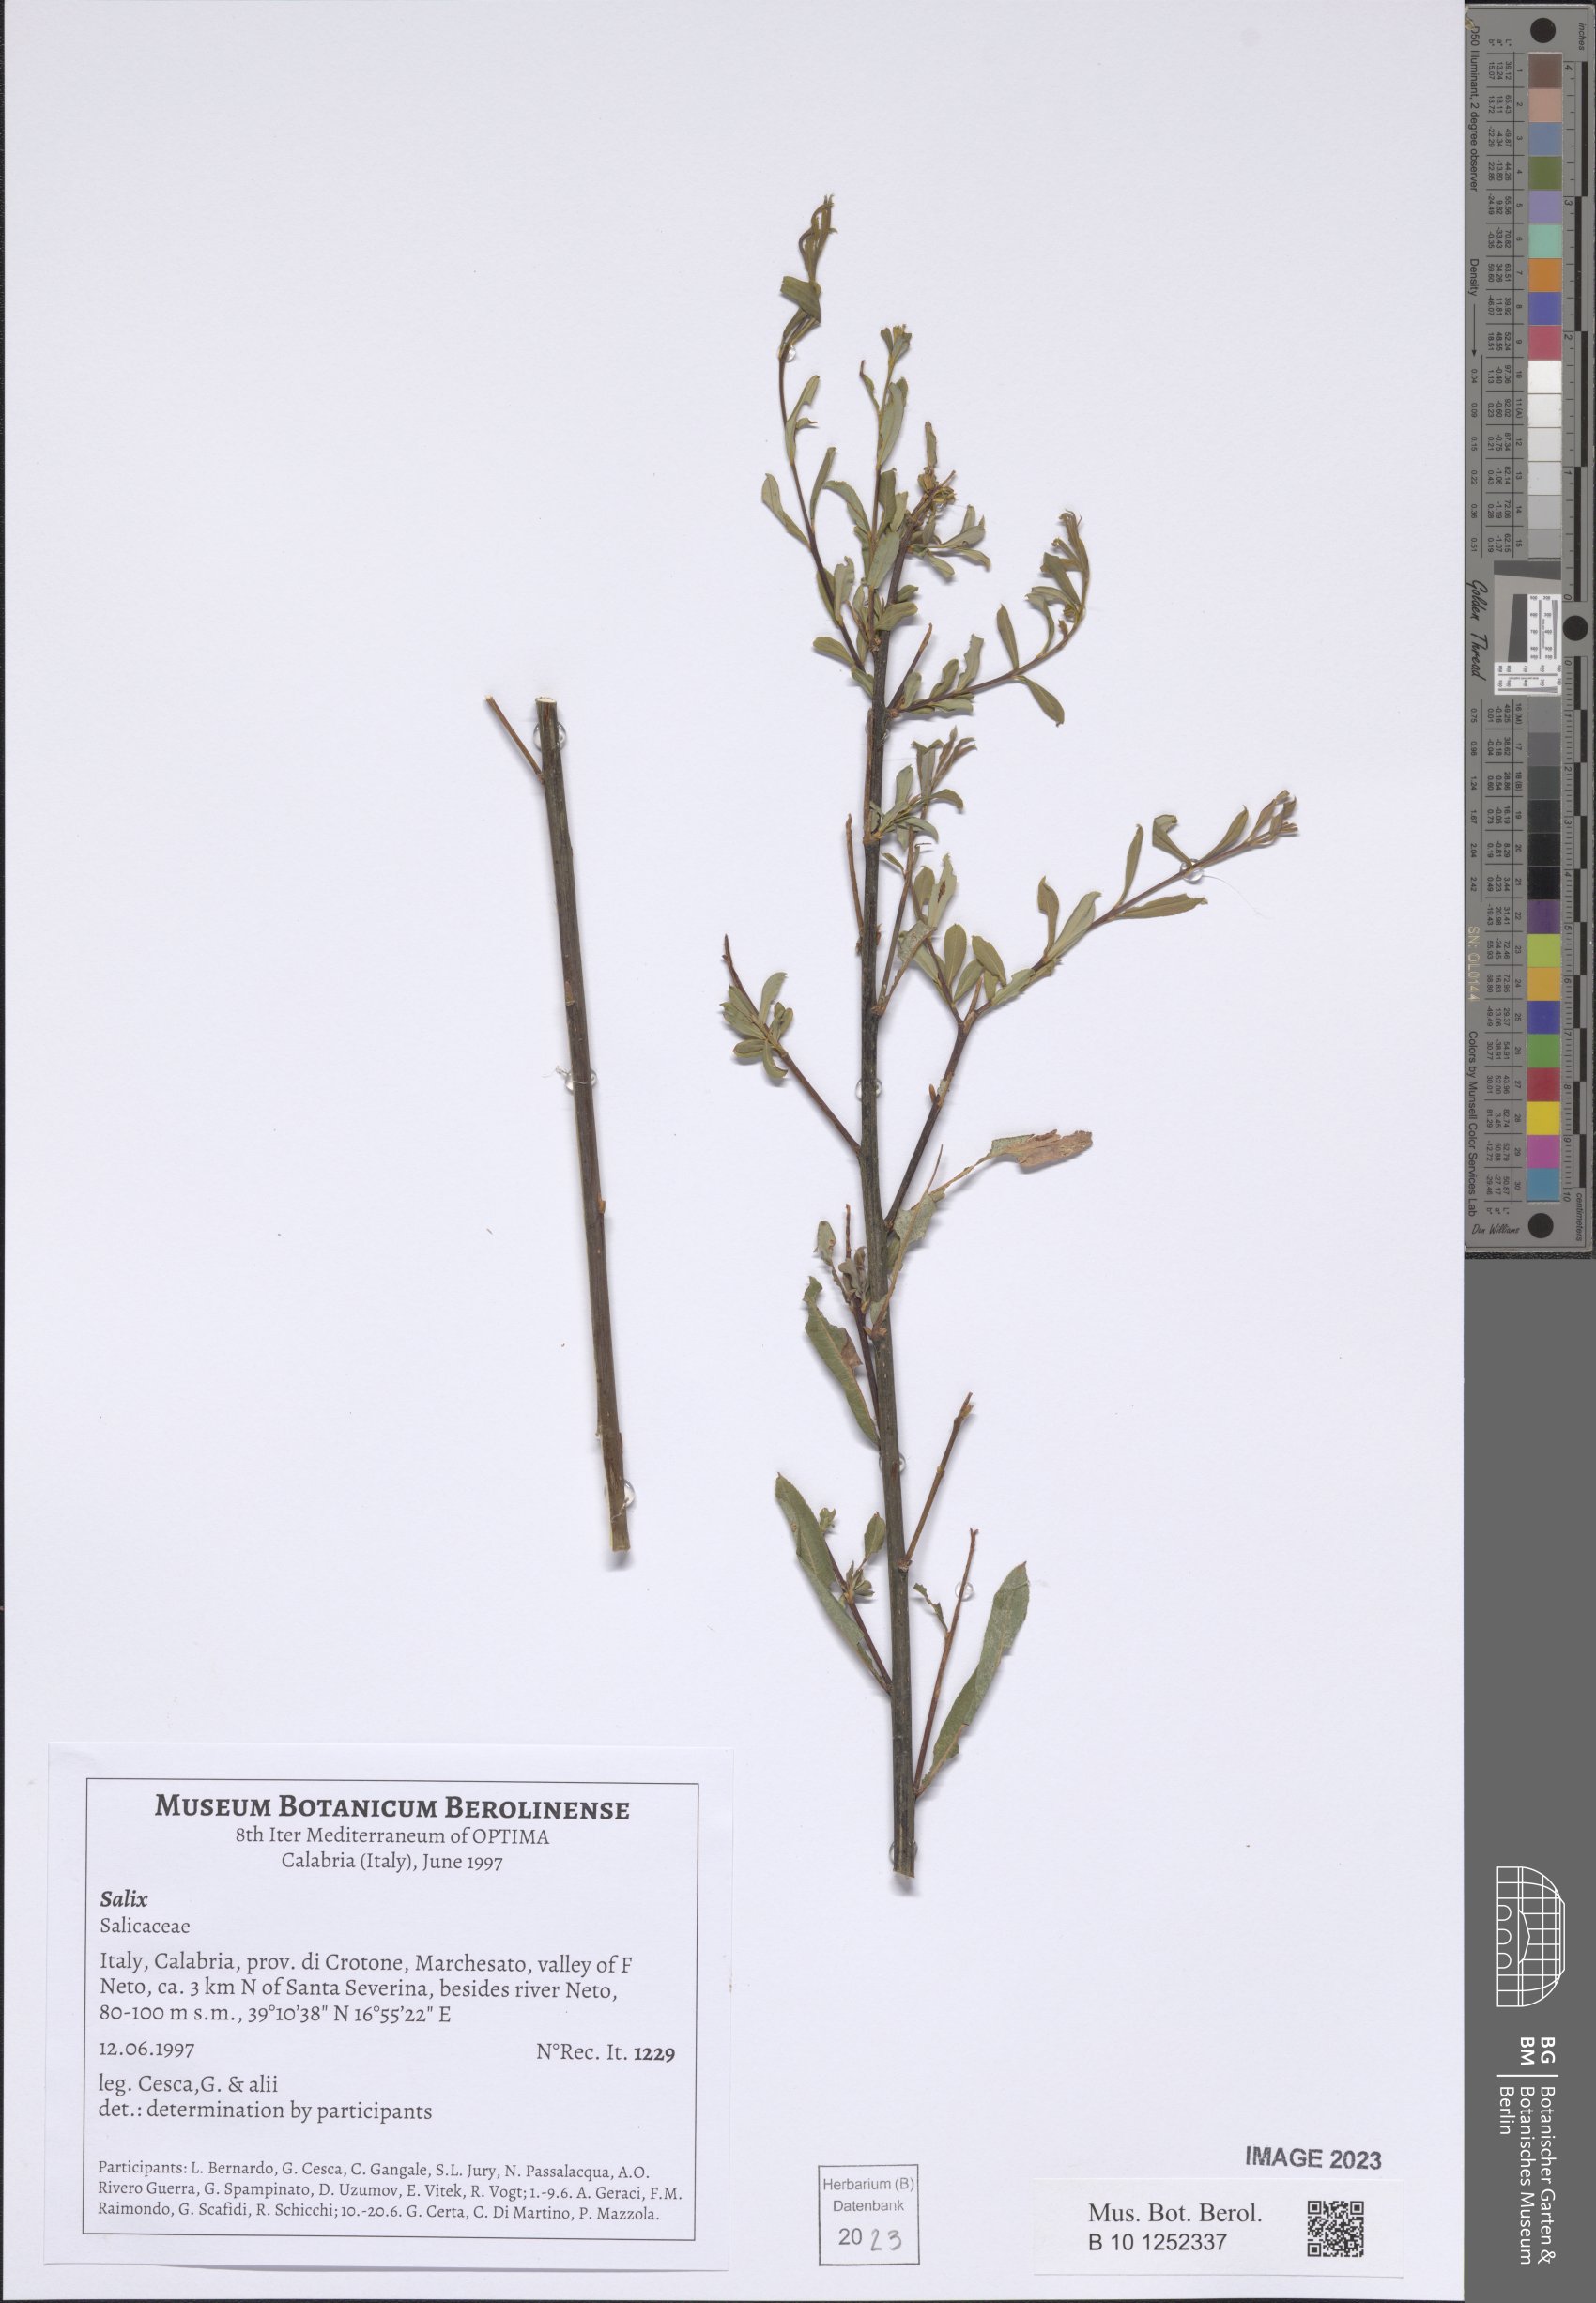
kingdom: Plantae
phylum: Tracheophyta
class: Magnoliopsida
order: Malpighiales
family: Salicaceae
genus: Salix
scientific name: Salix
